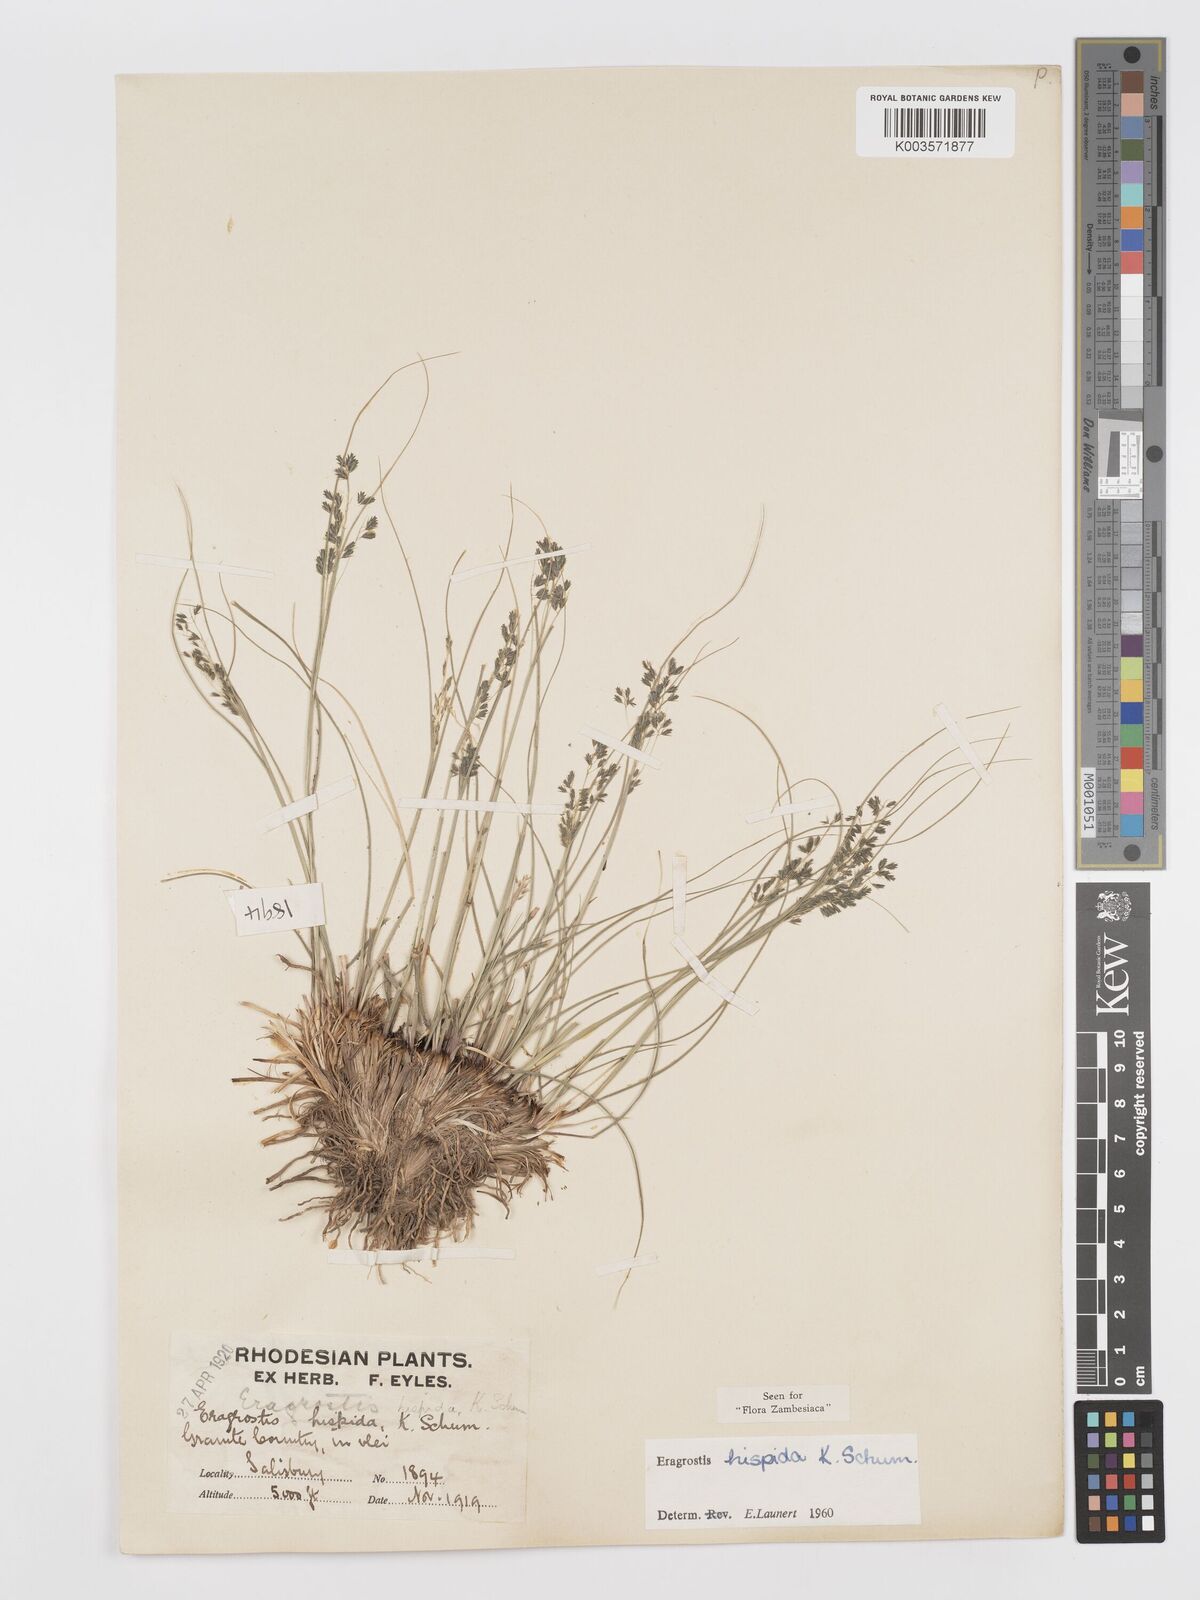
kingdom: Plantae
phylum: Tracheophyta
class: Liliopsida
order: Poales
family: Poaceae
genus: Eragrostis
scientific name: Eragrostis hispida
